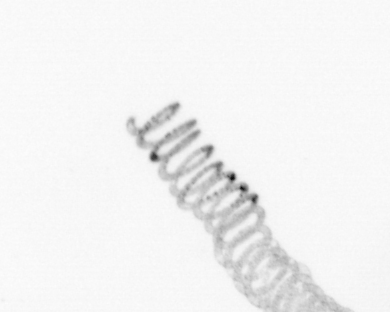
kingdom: Chromista
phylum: Ochrophyta
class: Bacillariophyceae
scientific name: Bacillariophyceae
